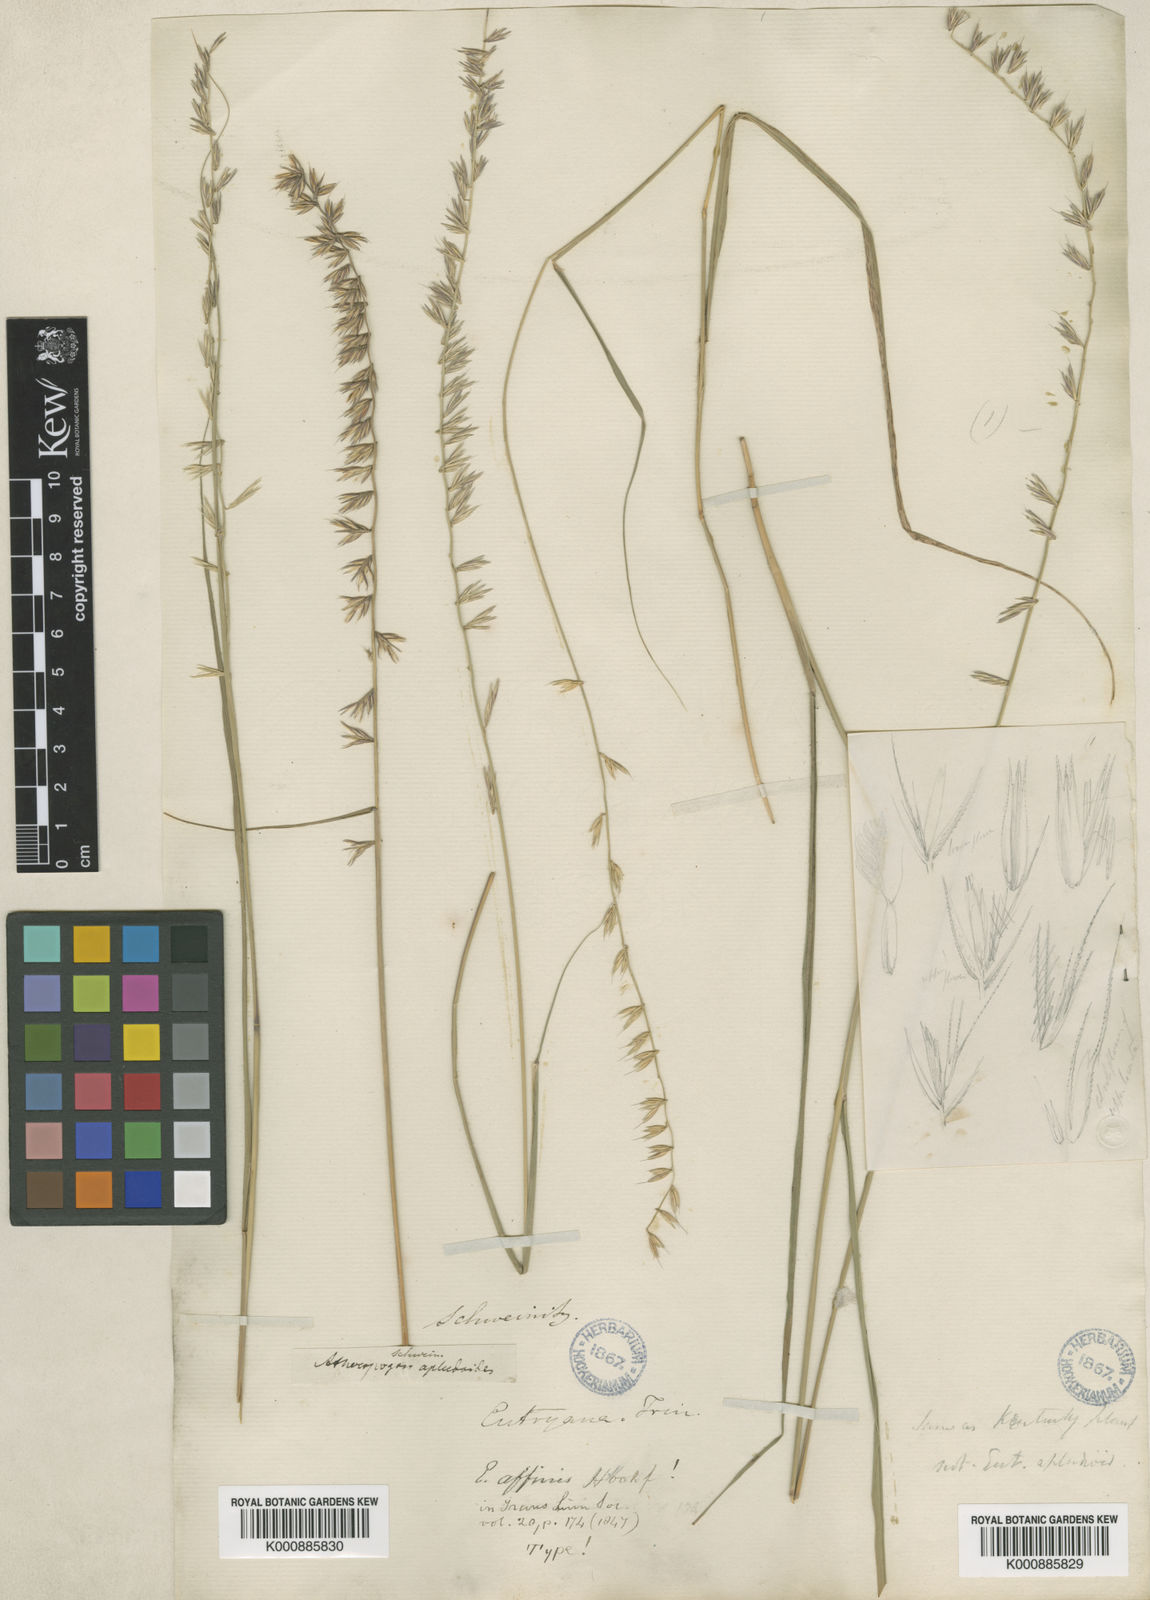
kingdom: Plantae
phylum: Tracheophyta
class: Liliopsida
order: Poales
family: Poaceae
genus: Bouteloua
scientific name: Bouteloua curtipendula
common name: Side-oats grama
